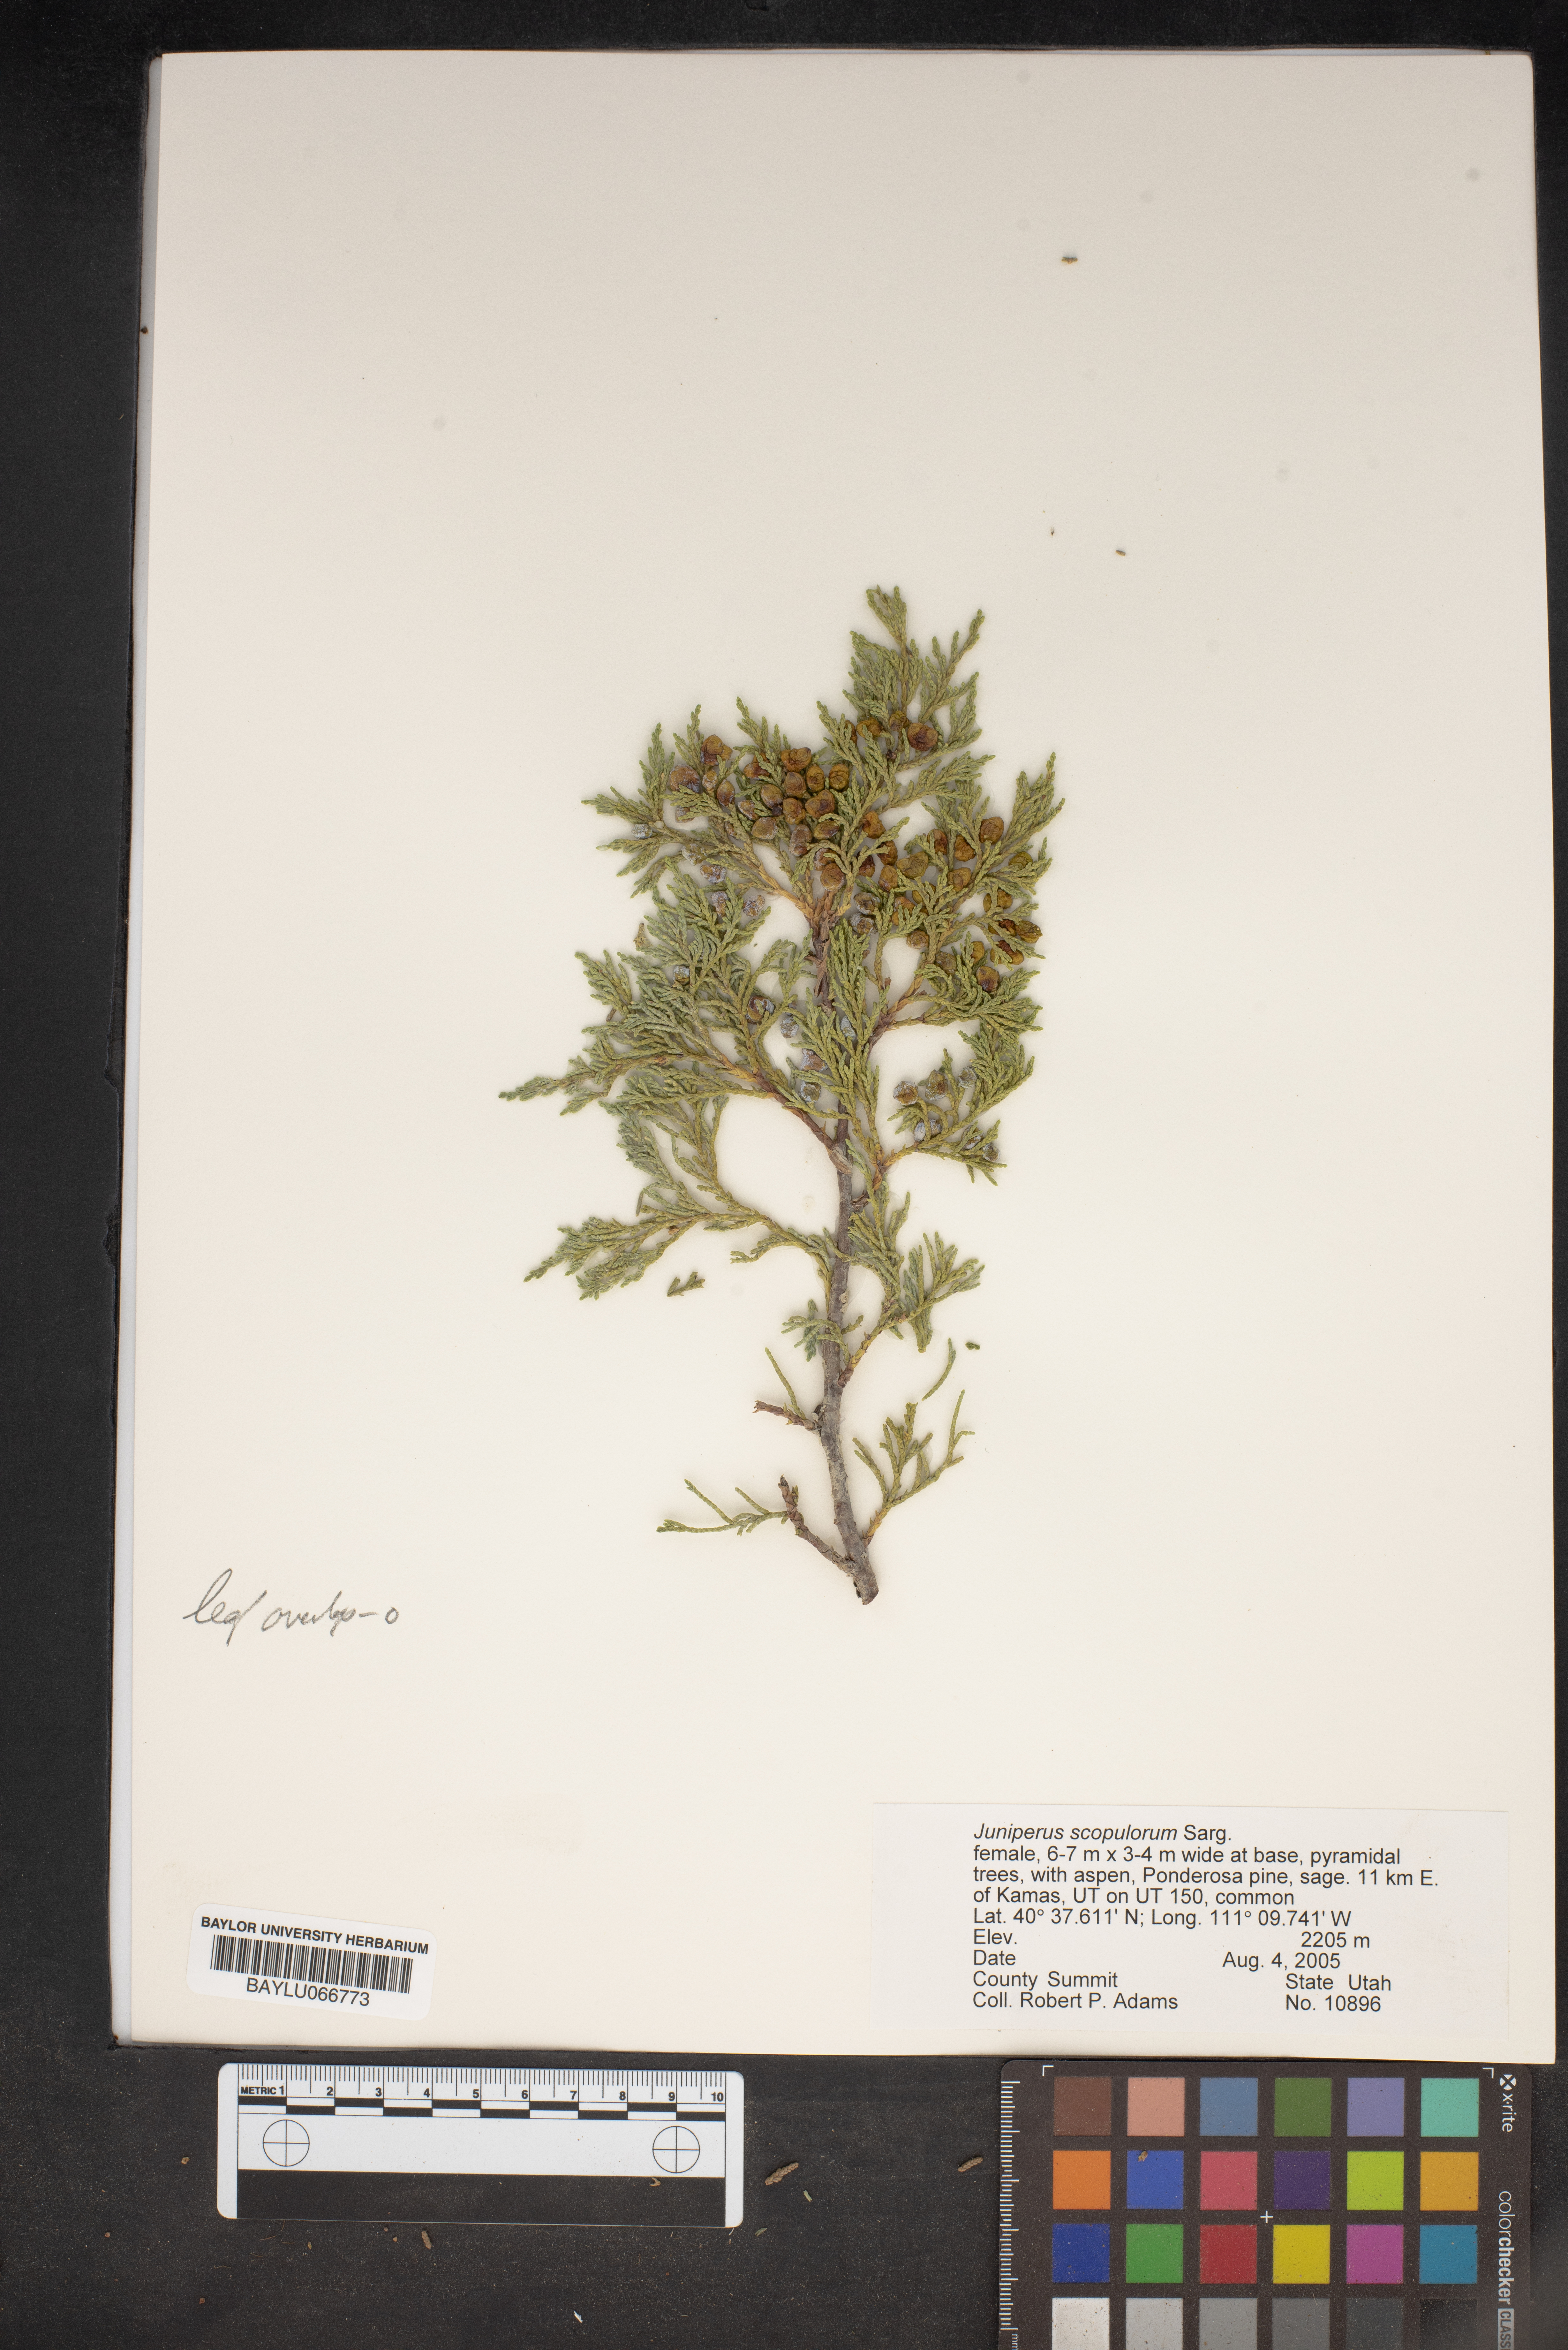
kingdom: Plantae
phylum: Tracheophyta
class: Pinopsida
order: Pinales
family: Cupressaceae
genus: Juniperus
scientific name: Juniperus scopulorum
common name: Rocky mountain juniper
